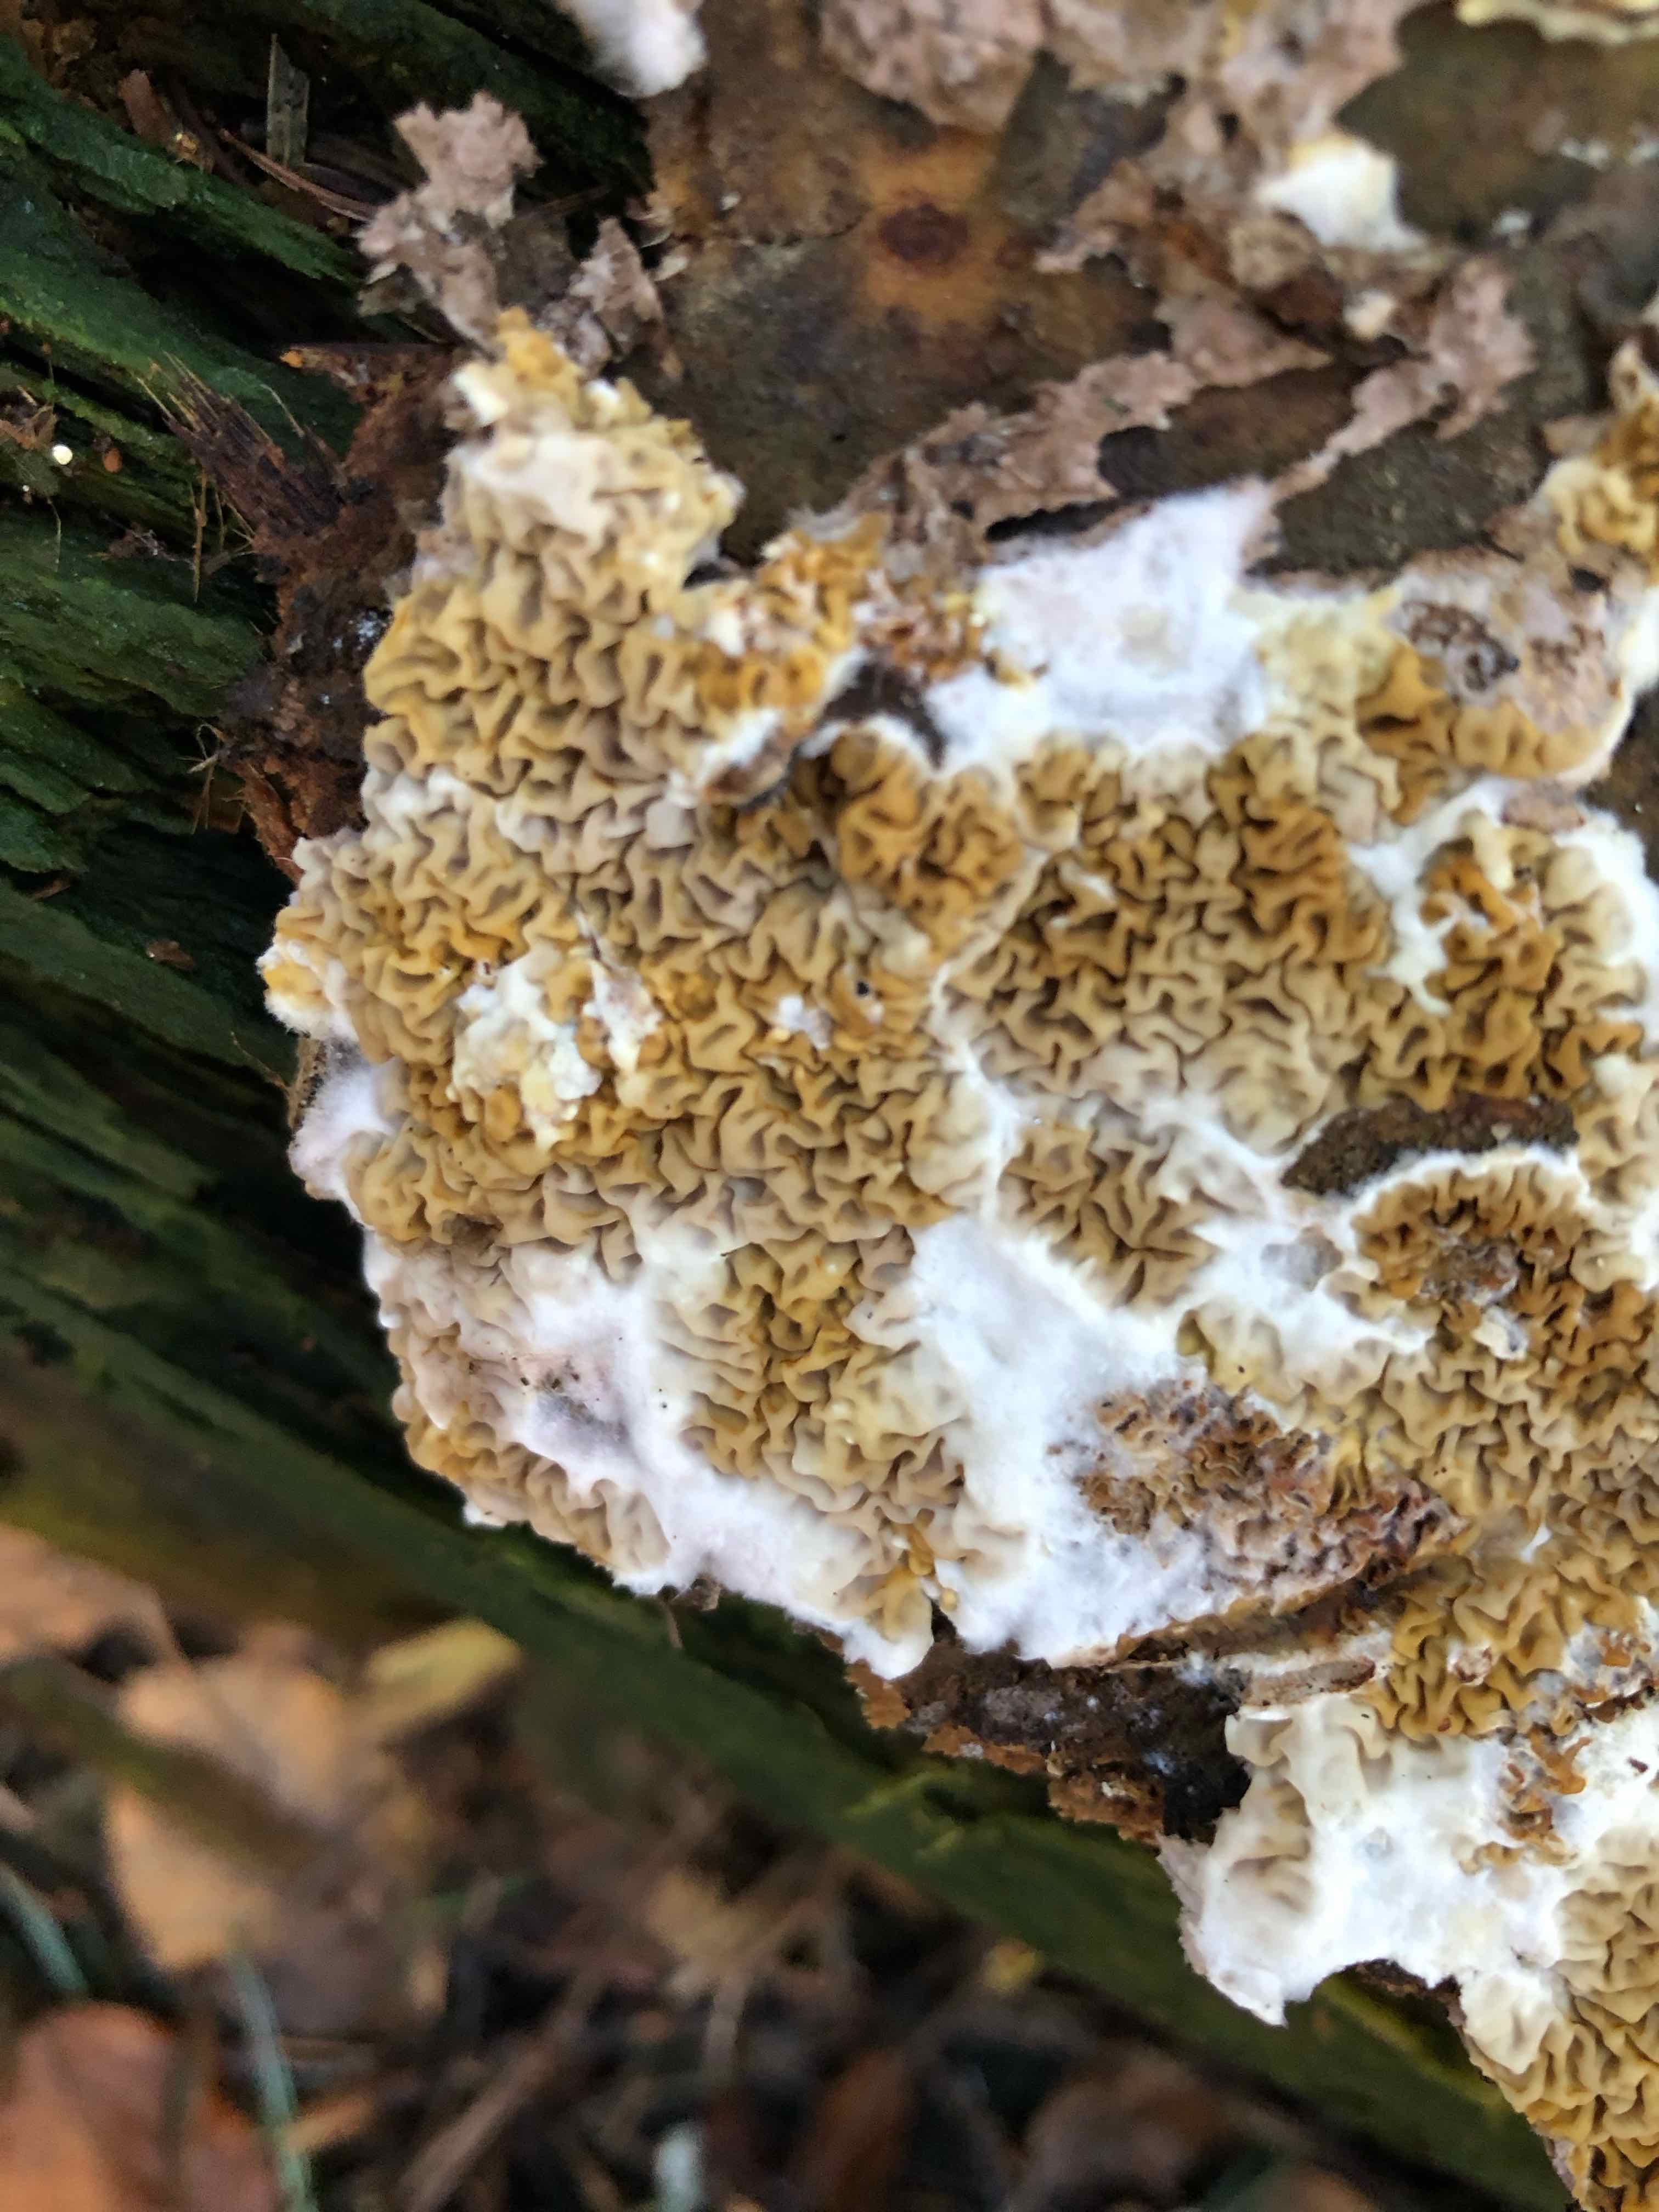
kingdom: Fungi
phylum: Basidiomycota
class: Agaricomycetes
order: Boletales
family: Serpulaceae
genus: Serpula
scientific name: Serpula himantioides
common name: tyndkødet hussvamp
